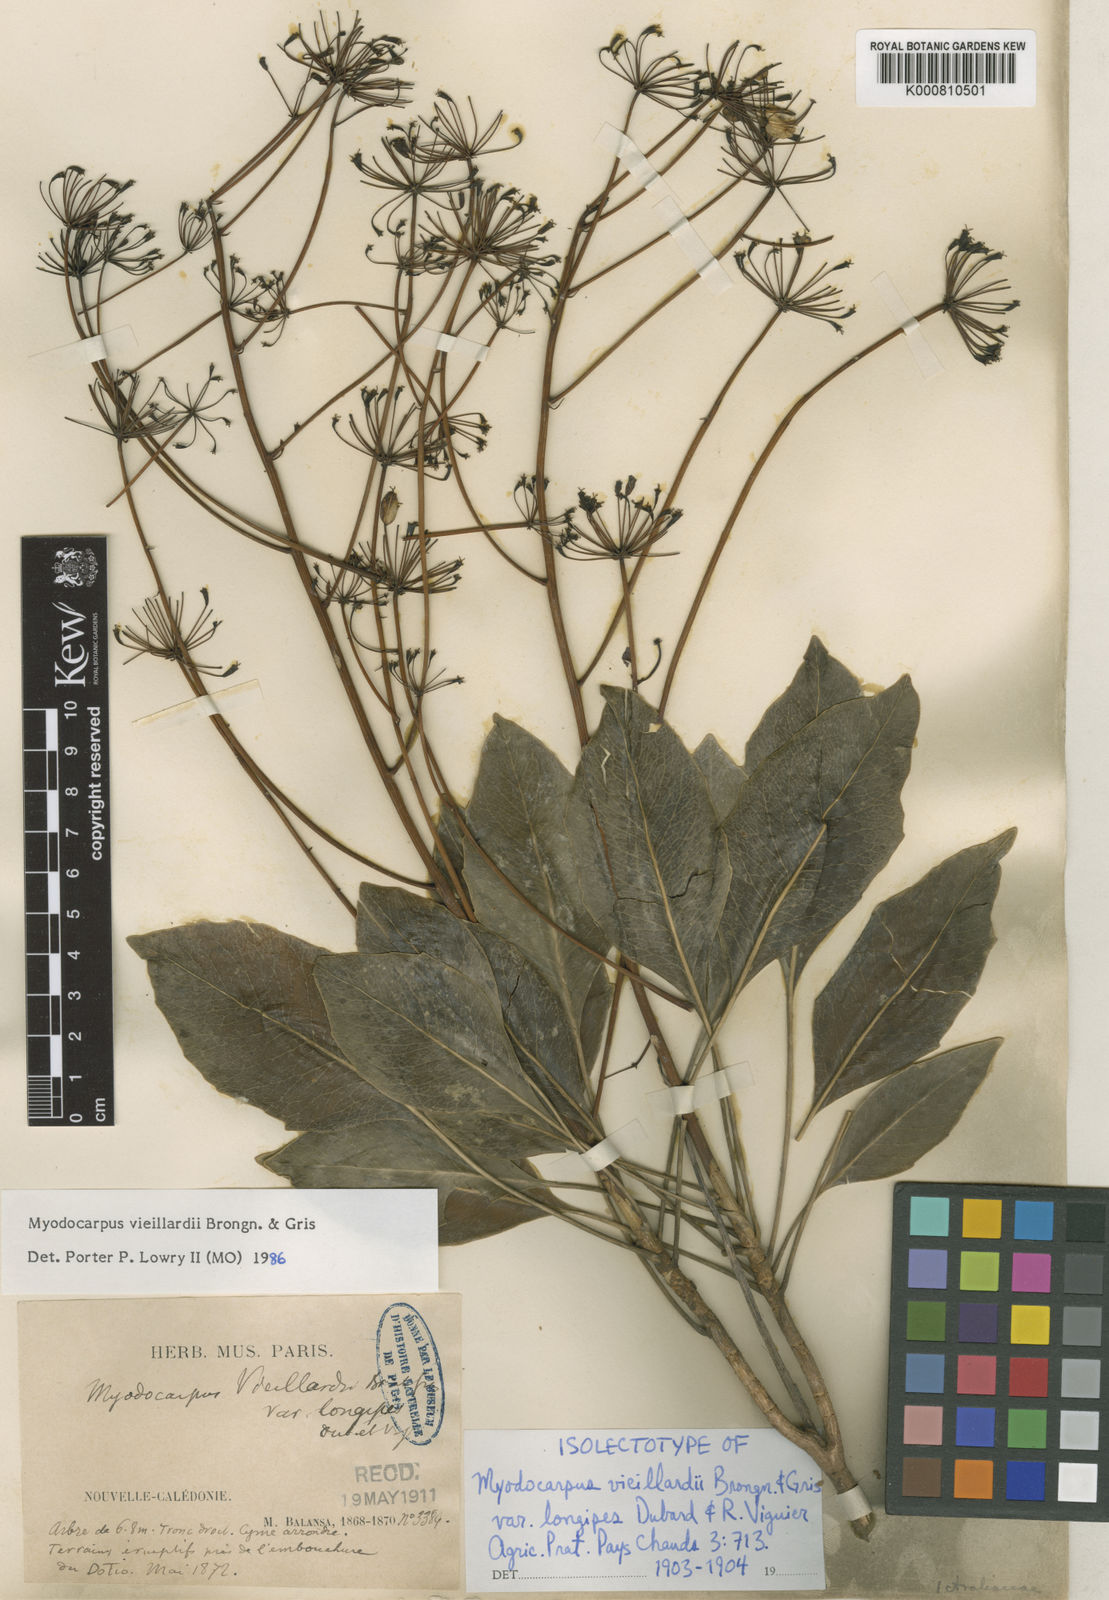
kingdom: Plantae
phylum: Tracheophyta
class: Magnoliopsida
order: Apiales
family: Myodocarpaceae
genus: Myodocarpus
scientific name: Myodocarpus vieillardii
